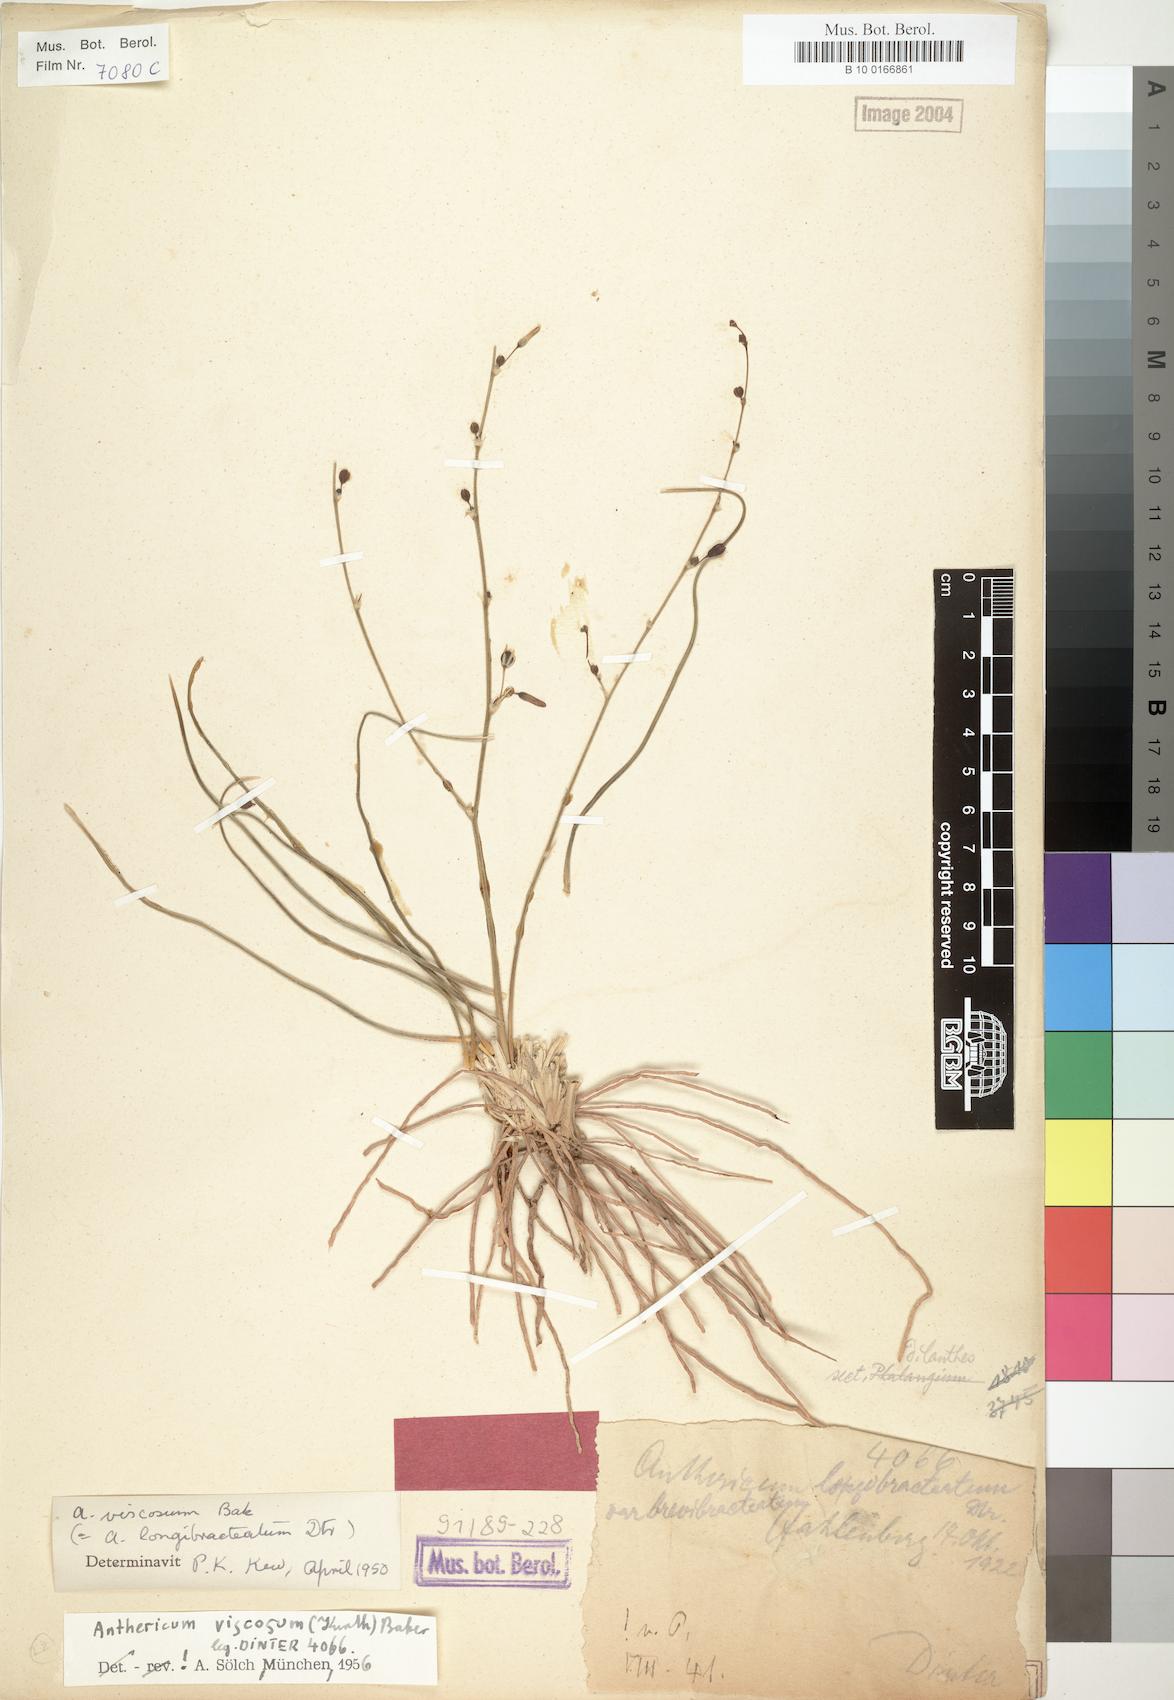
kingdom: Plantae
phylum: Tracheophyta
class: Liliopsida
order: Asparagales
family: Asparagaceae
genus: Chlorophytum
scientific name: Chlorophytum viscosum
